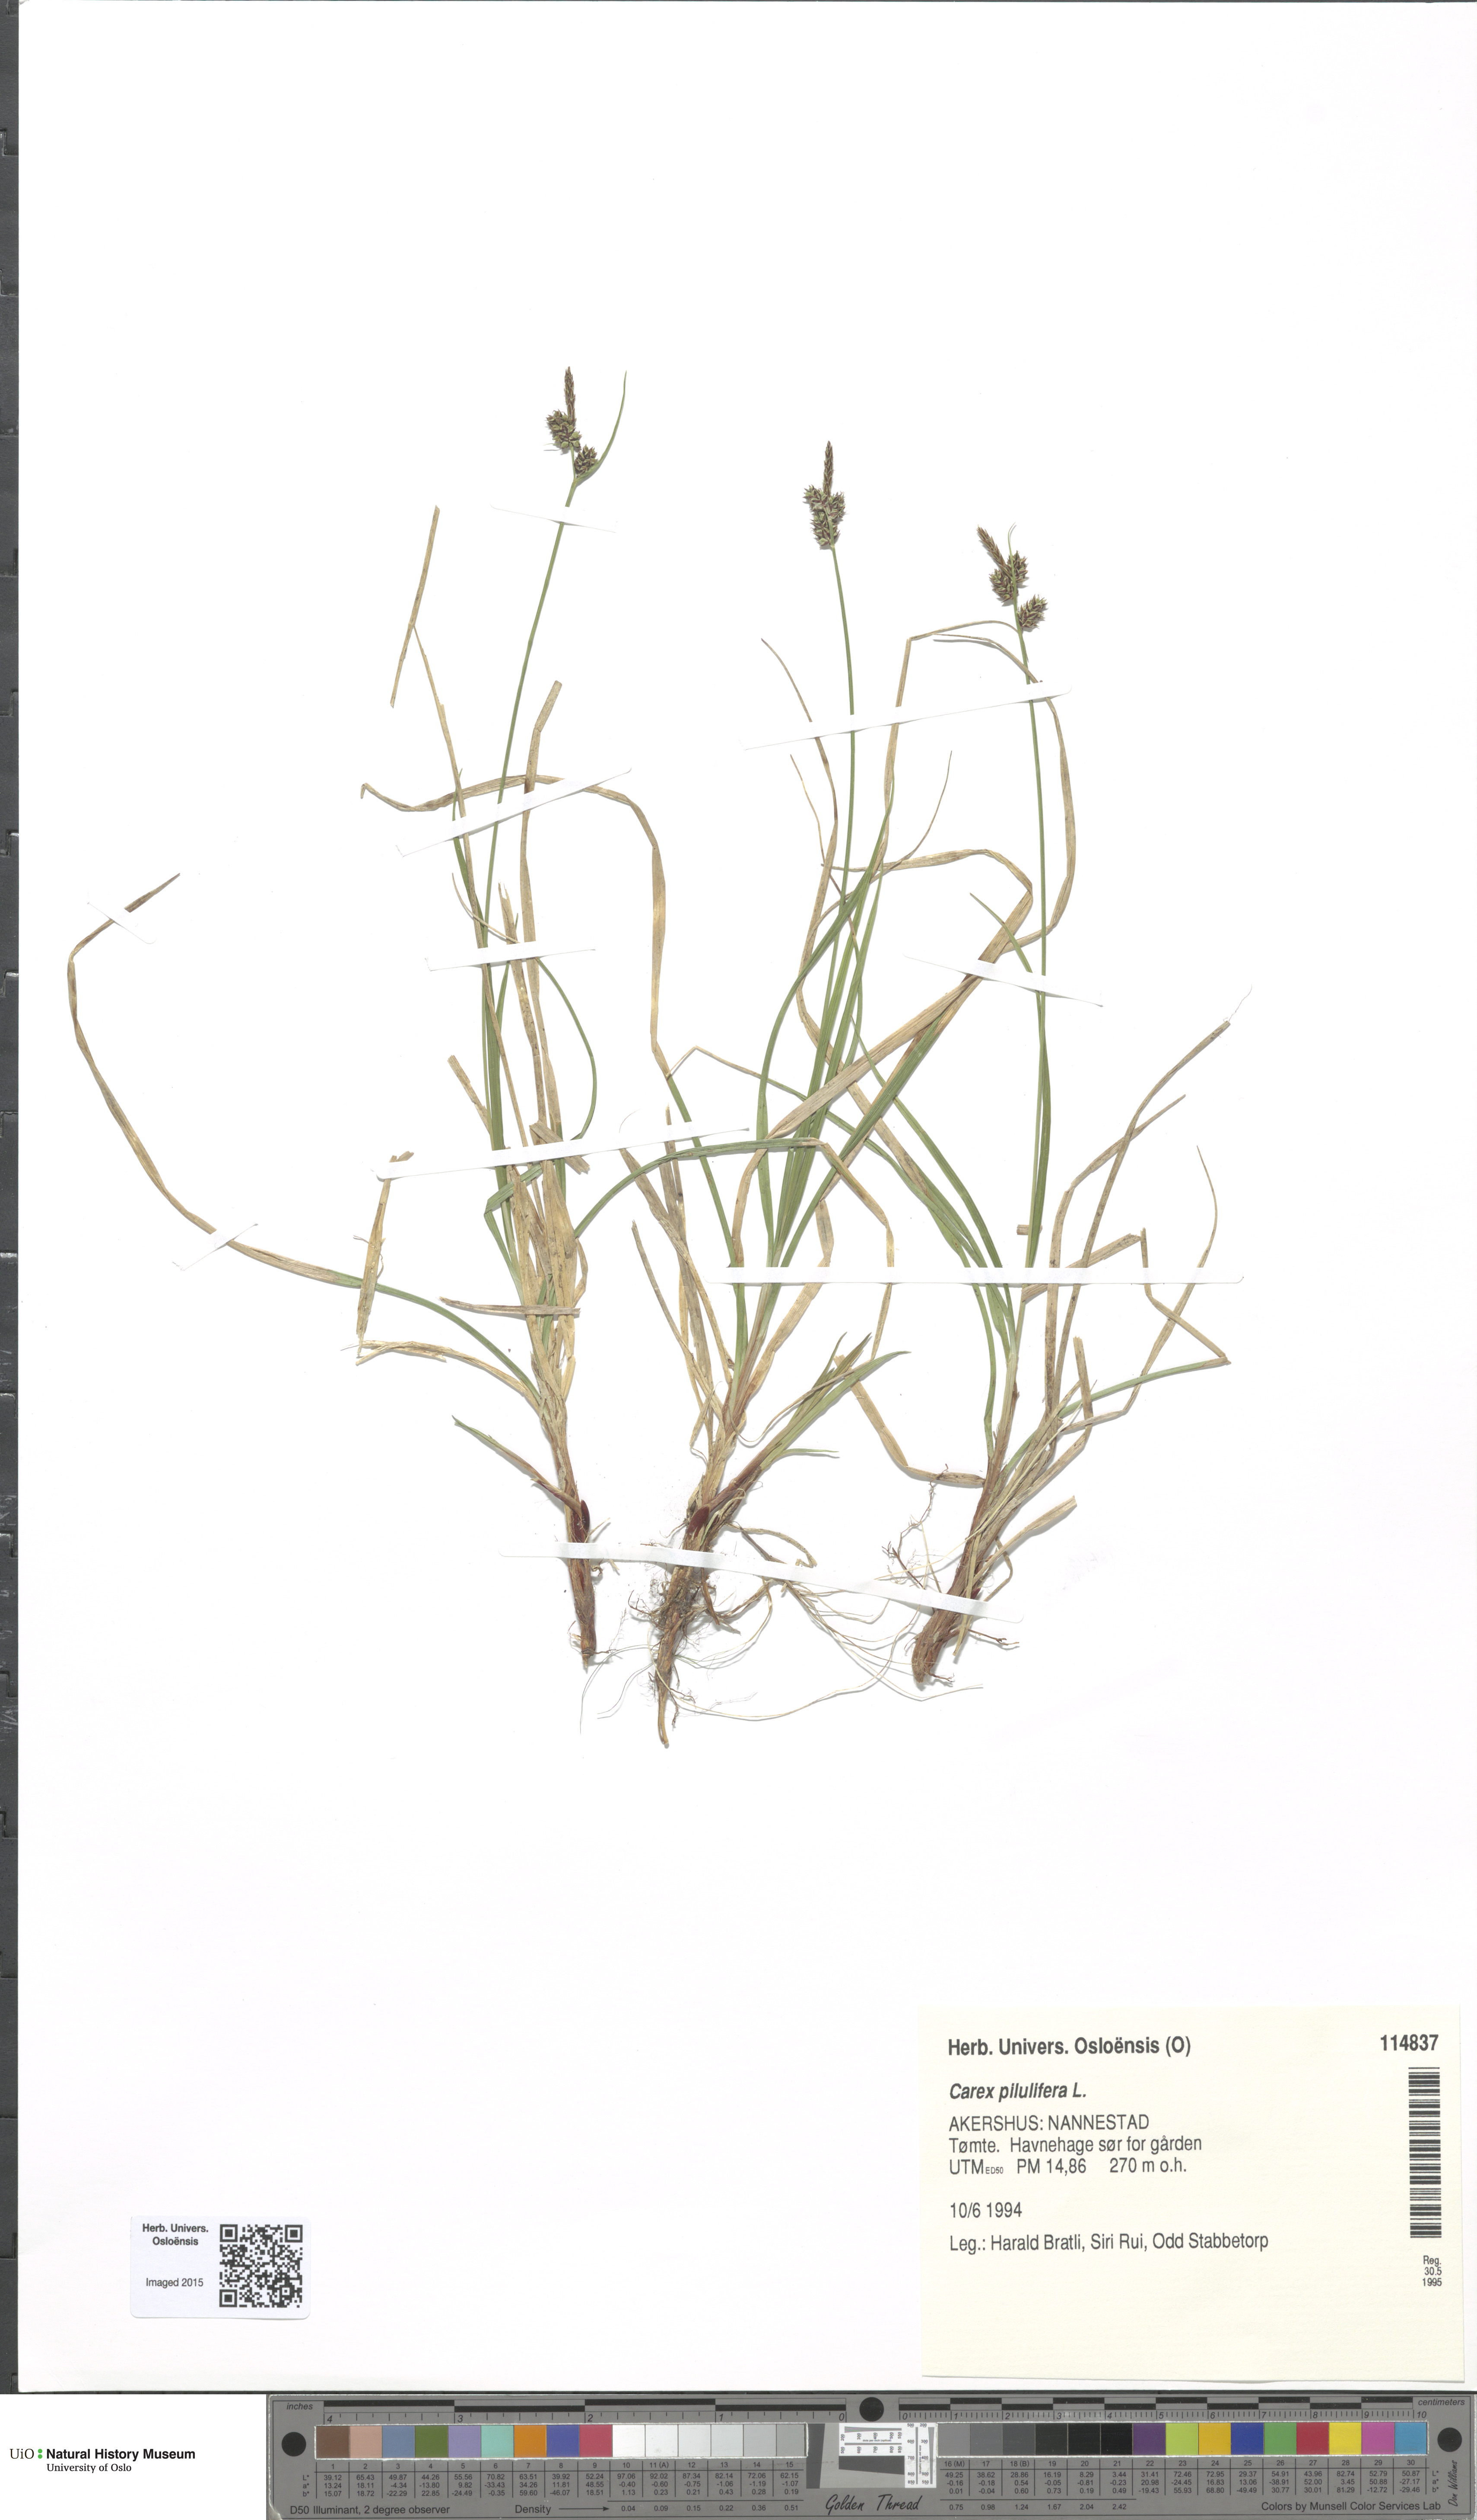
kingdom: Plantae
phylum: Tracheophyta
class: Liliopsida
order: Poales
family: Cyperaceae
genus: Carex
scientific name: Carex pilulifera
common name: Pill sedge
